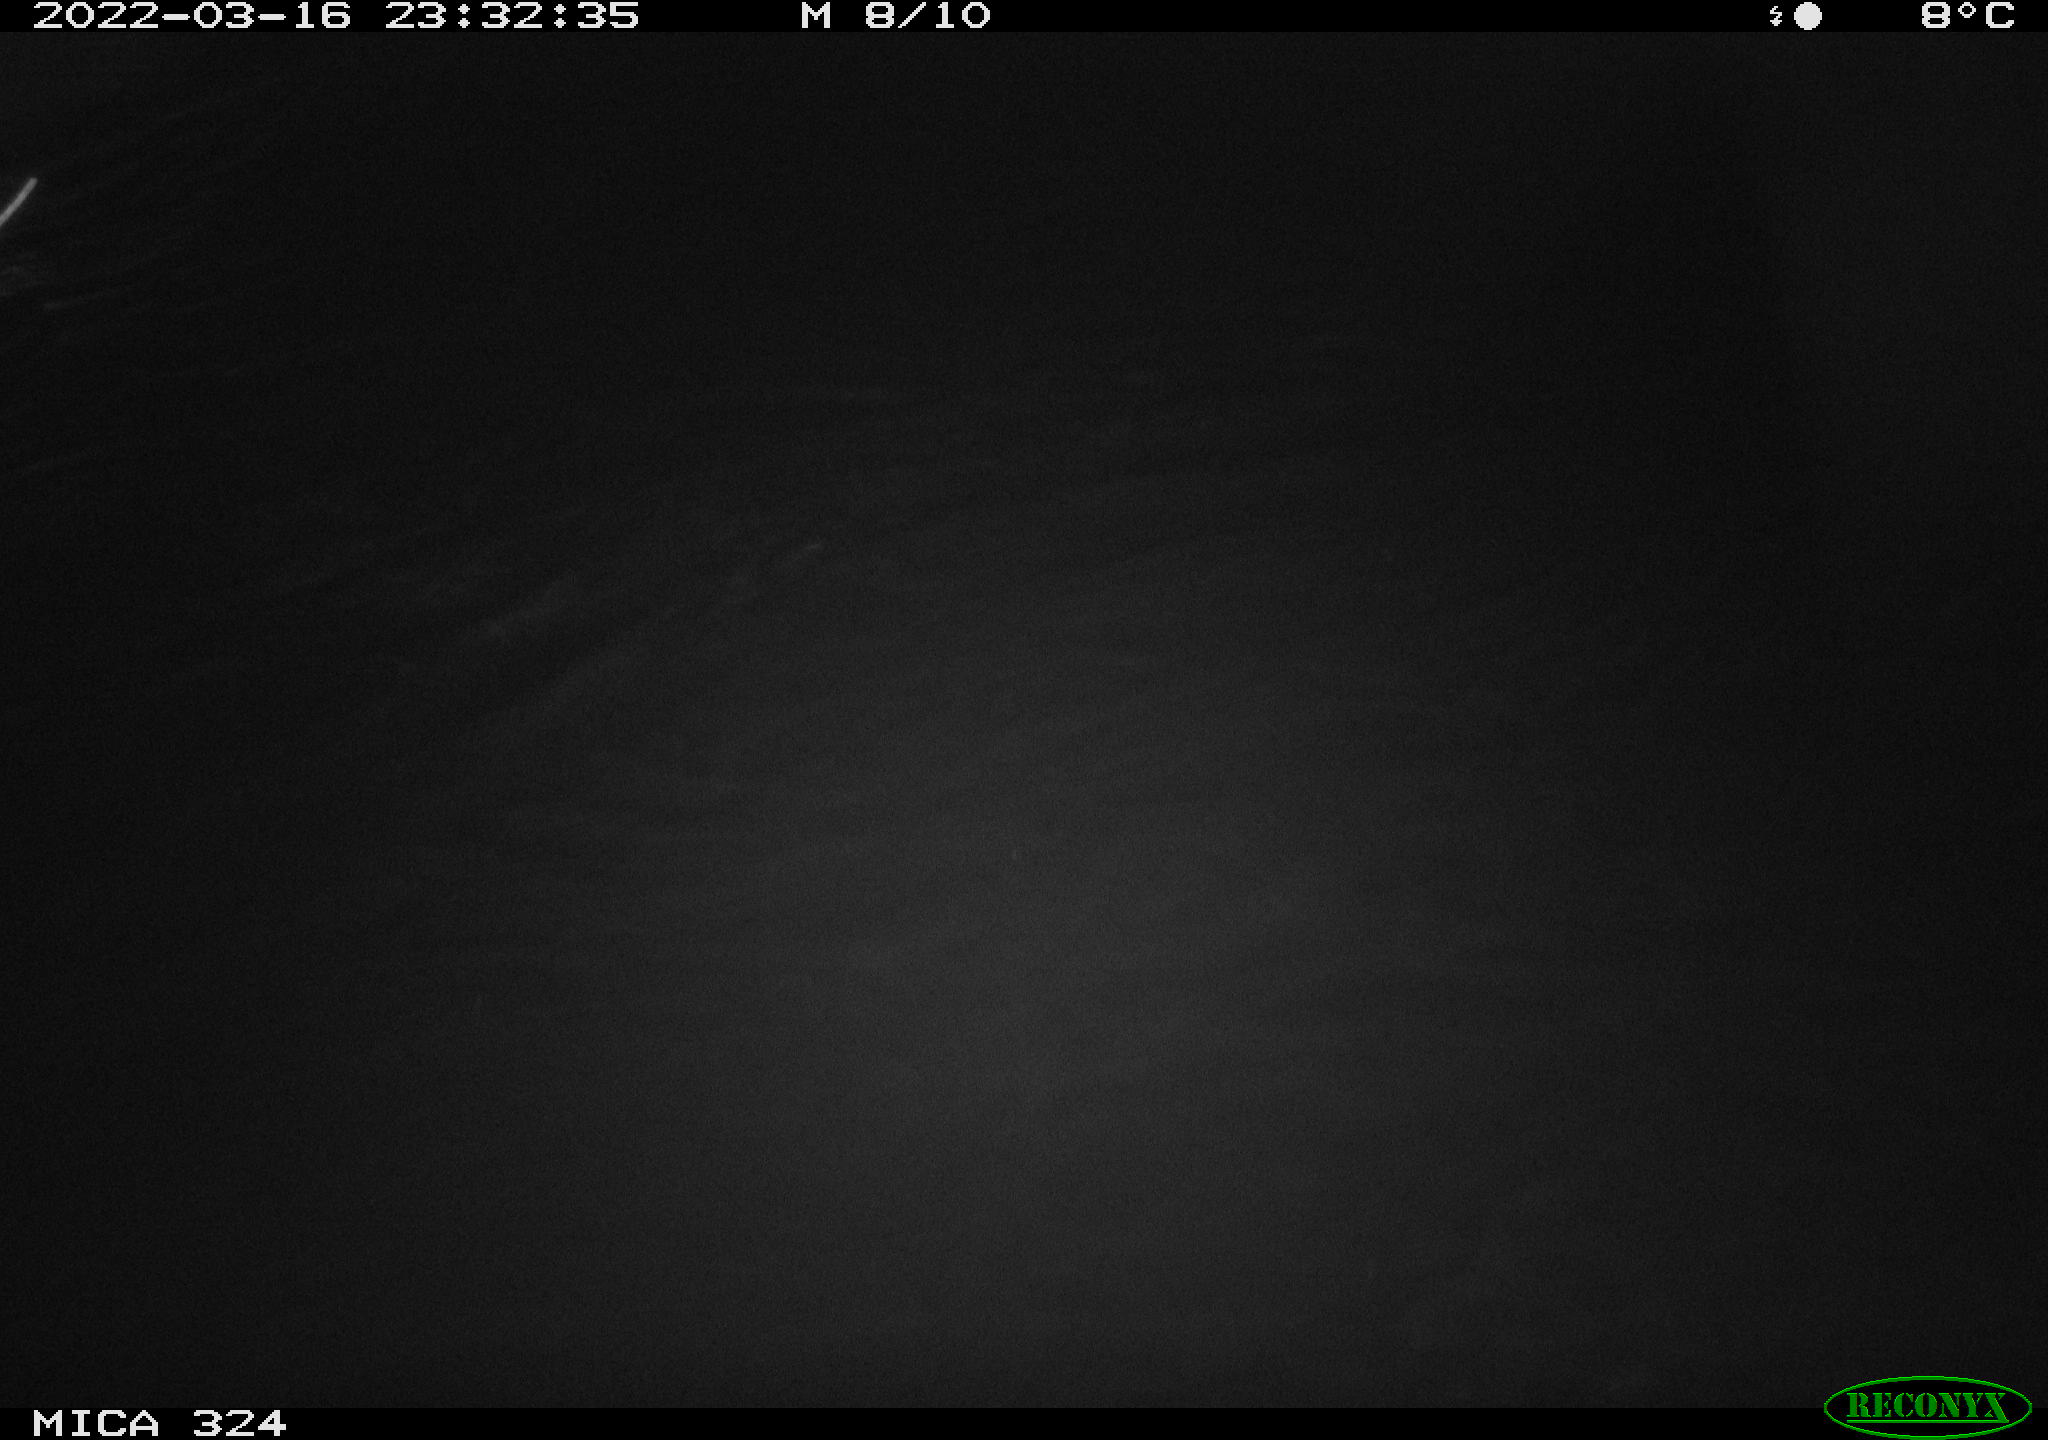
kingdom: Animalia
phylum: Chordata
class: Mammalia
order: Rodentia
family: Cricetidae
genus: Ondatra
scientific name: Ondatra zibethicus
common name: Muskrat
